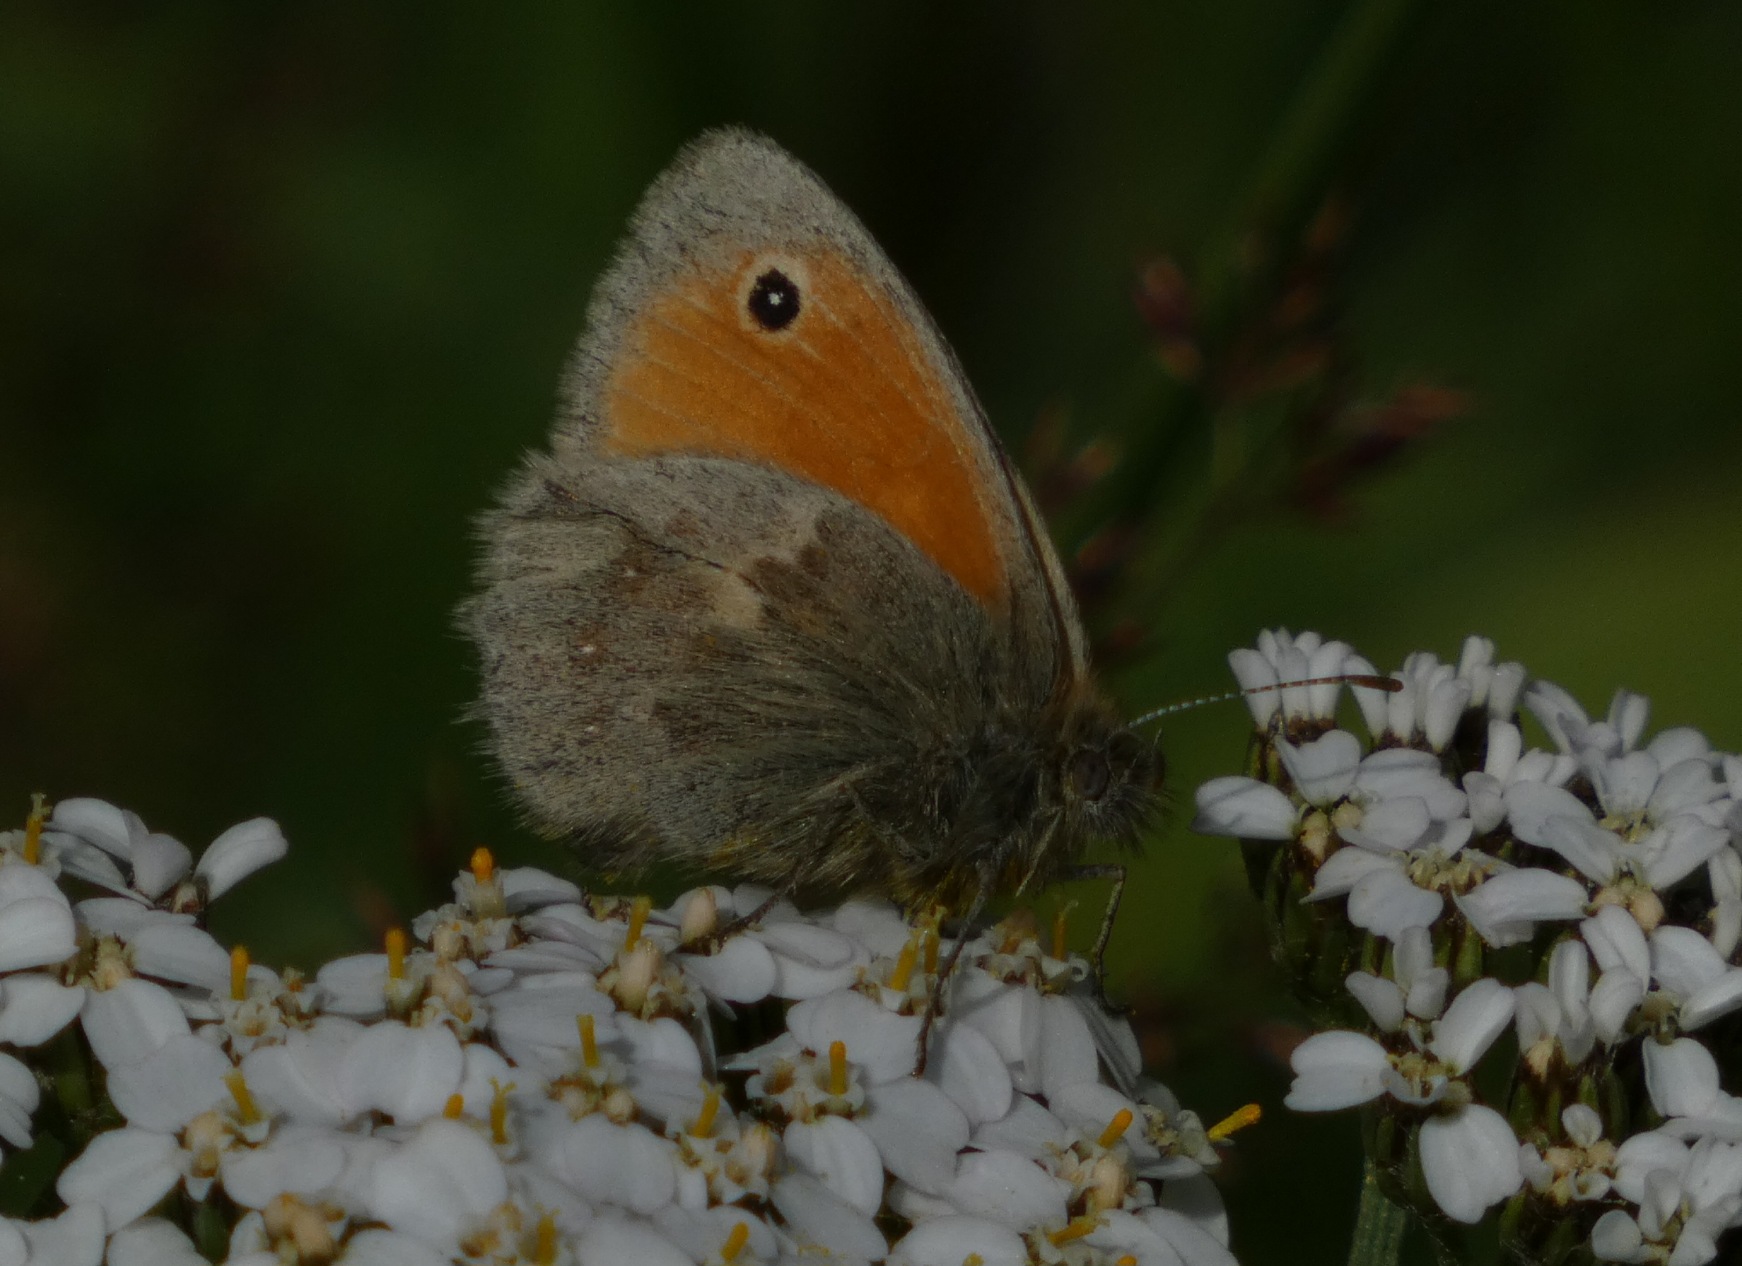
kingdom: Animalia
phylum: Arthropoda
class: Insecta
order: Lepidoptera
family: Nymphalidae
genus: Coenonympha
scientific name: Coenonympha pamphilus
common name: Okkergul randøje
